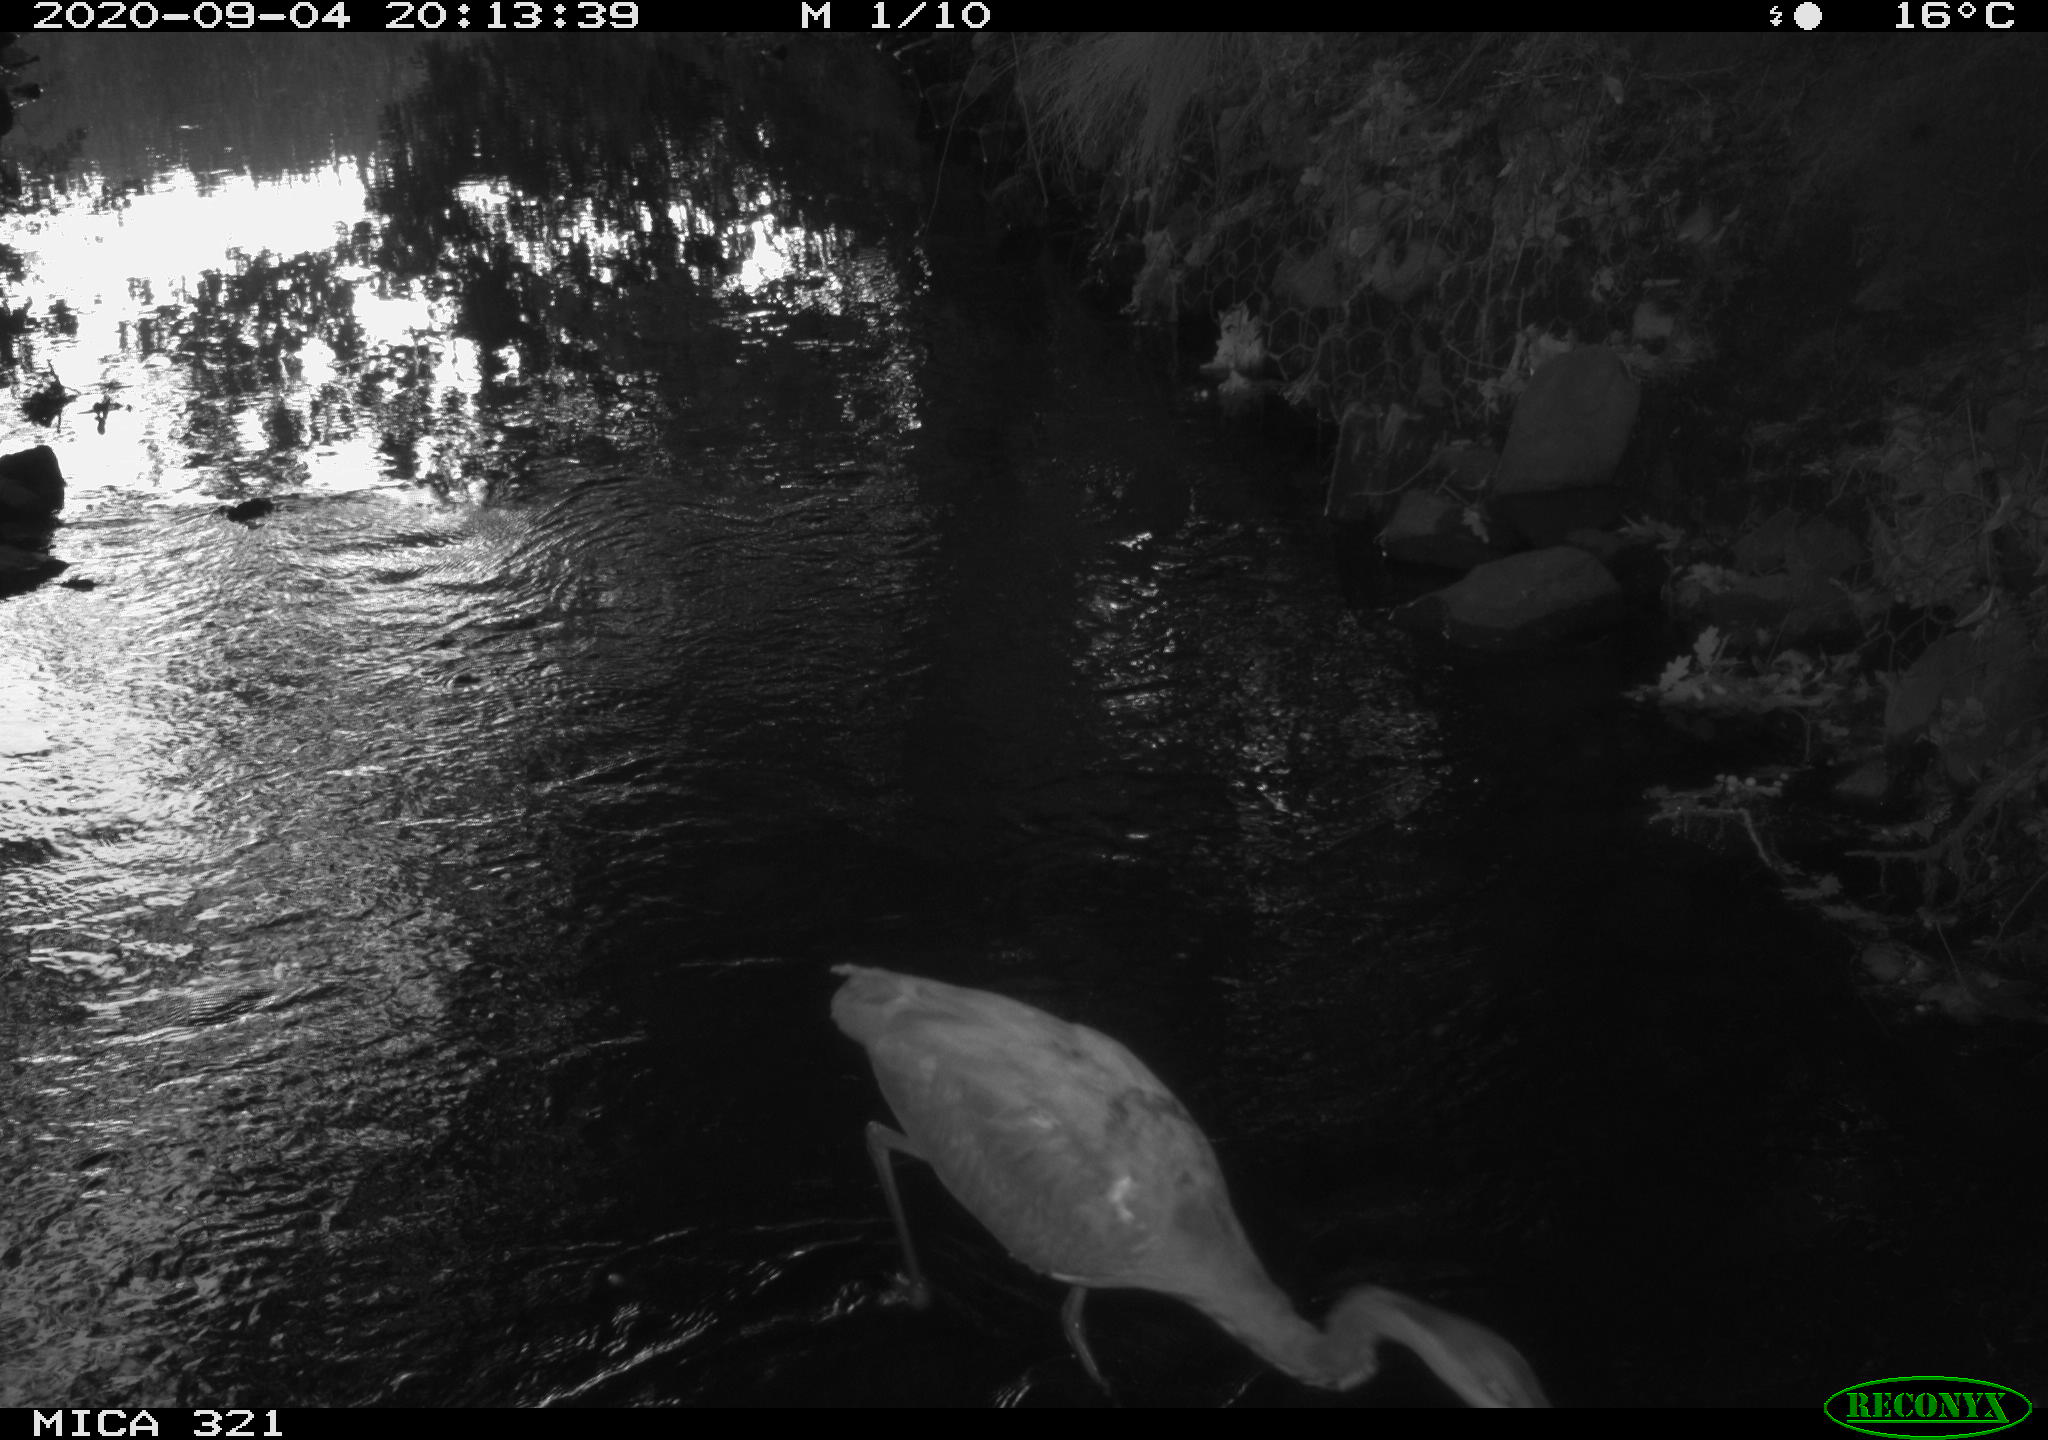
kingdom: Animalia
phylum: Chordata
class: Aves
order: Pelecaniformes
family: Ardeidae
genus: Ardea
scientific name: Ardea cinerea
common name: Grey heron
